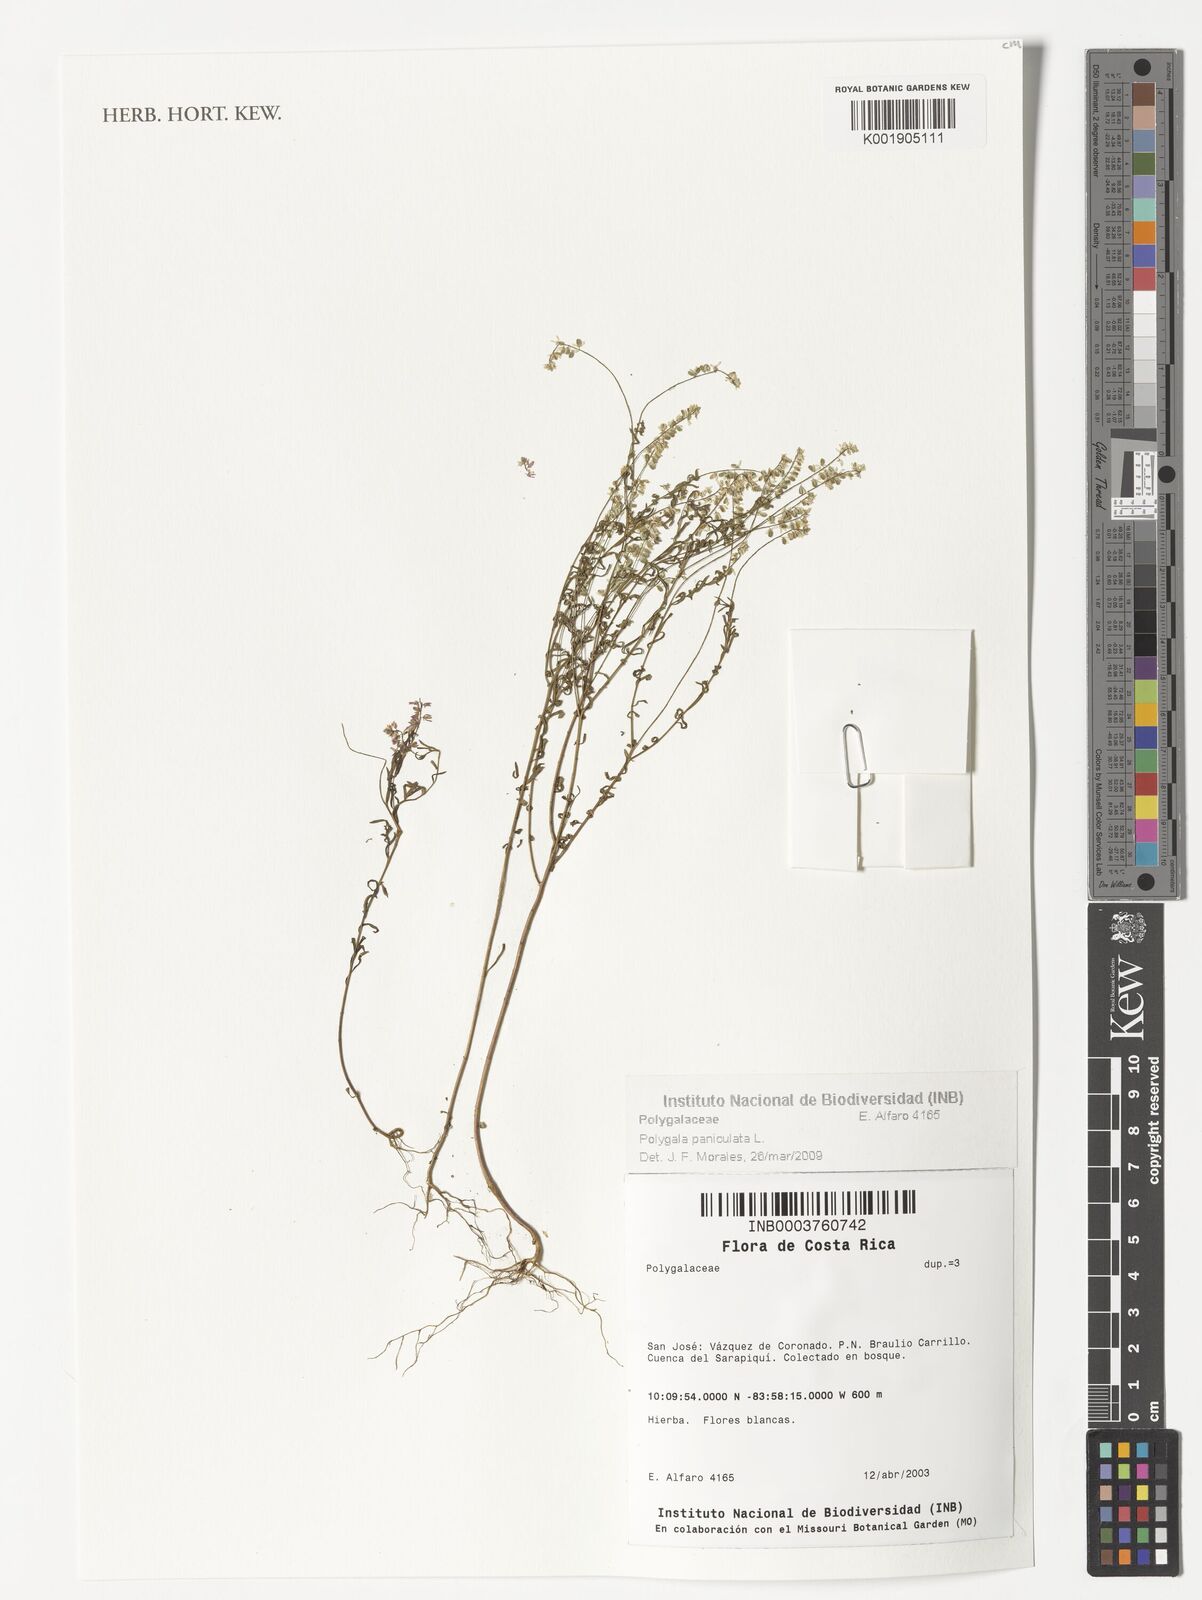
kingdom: Plantae
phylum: Tracheophyta
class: Magnoliopsida
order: Fabales
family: Polygalaceae
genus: Polygala
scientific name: Polygala paniculata
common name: Orosne
